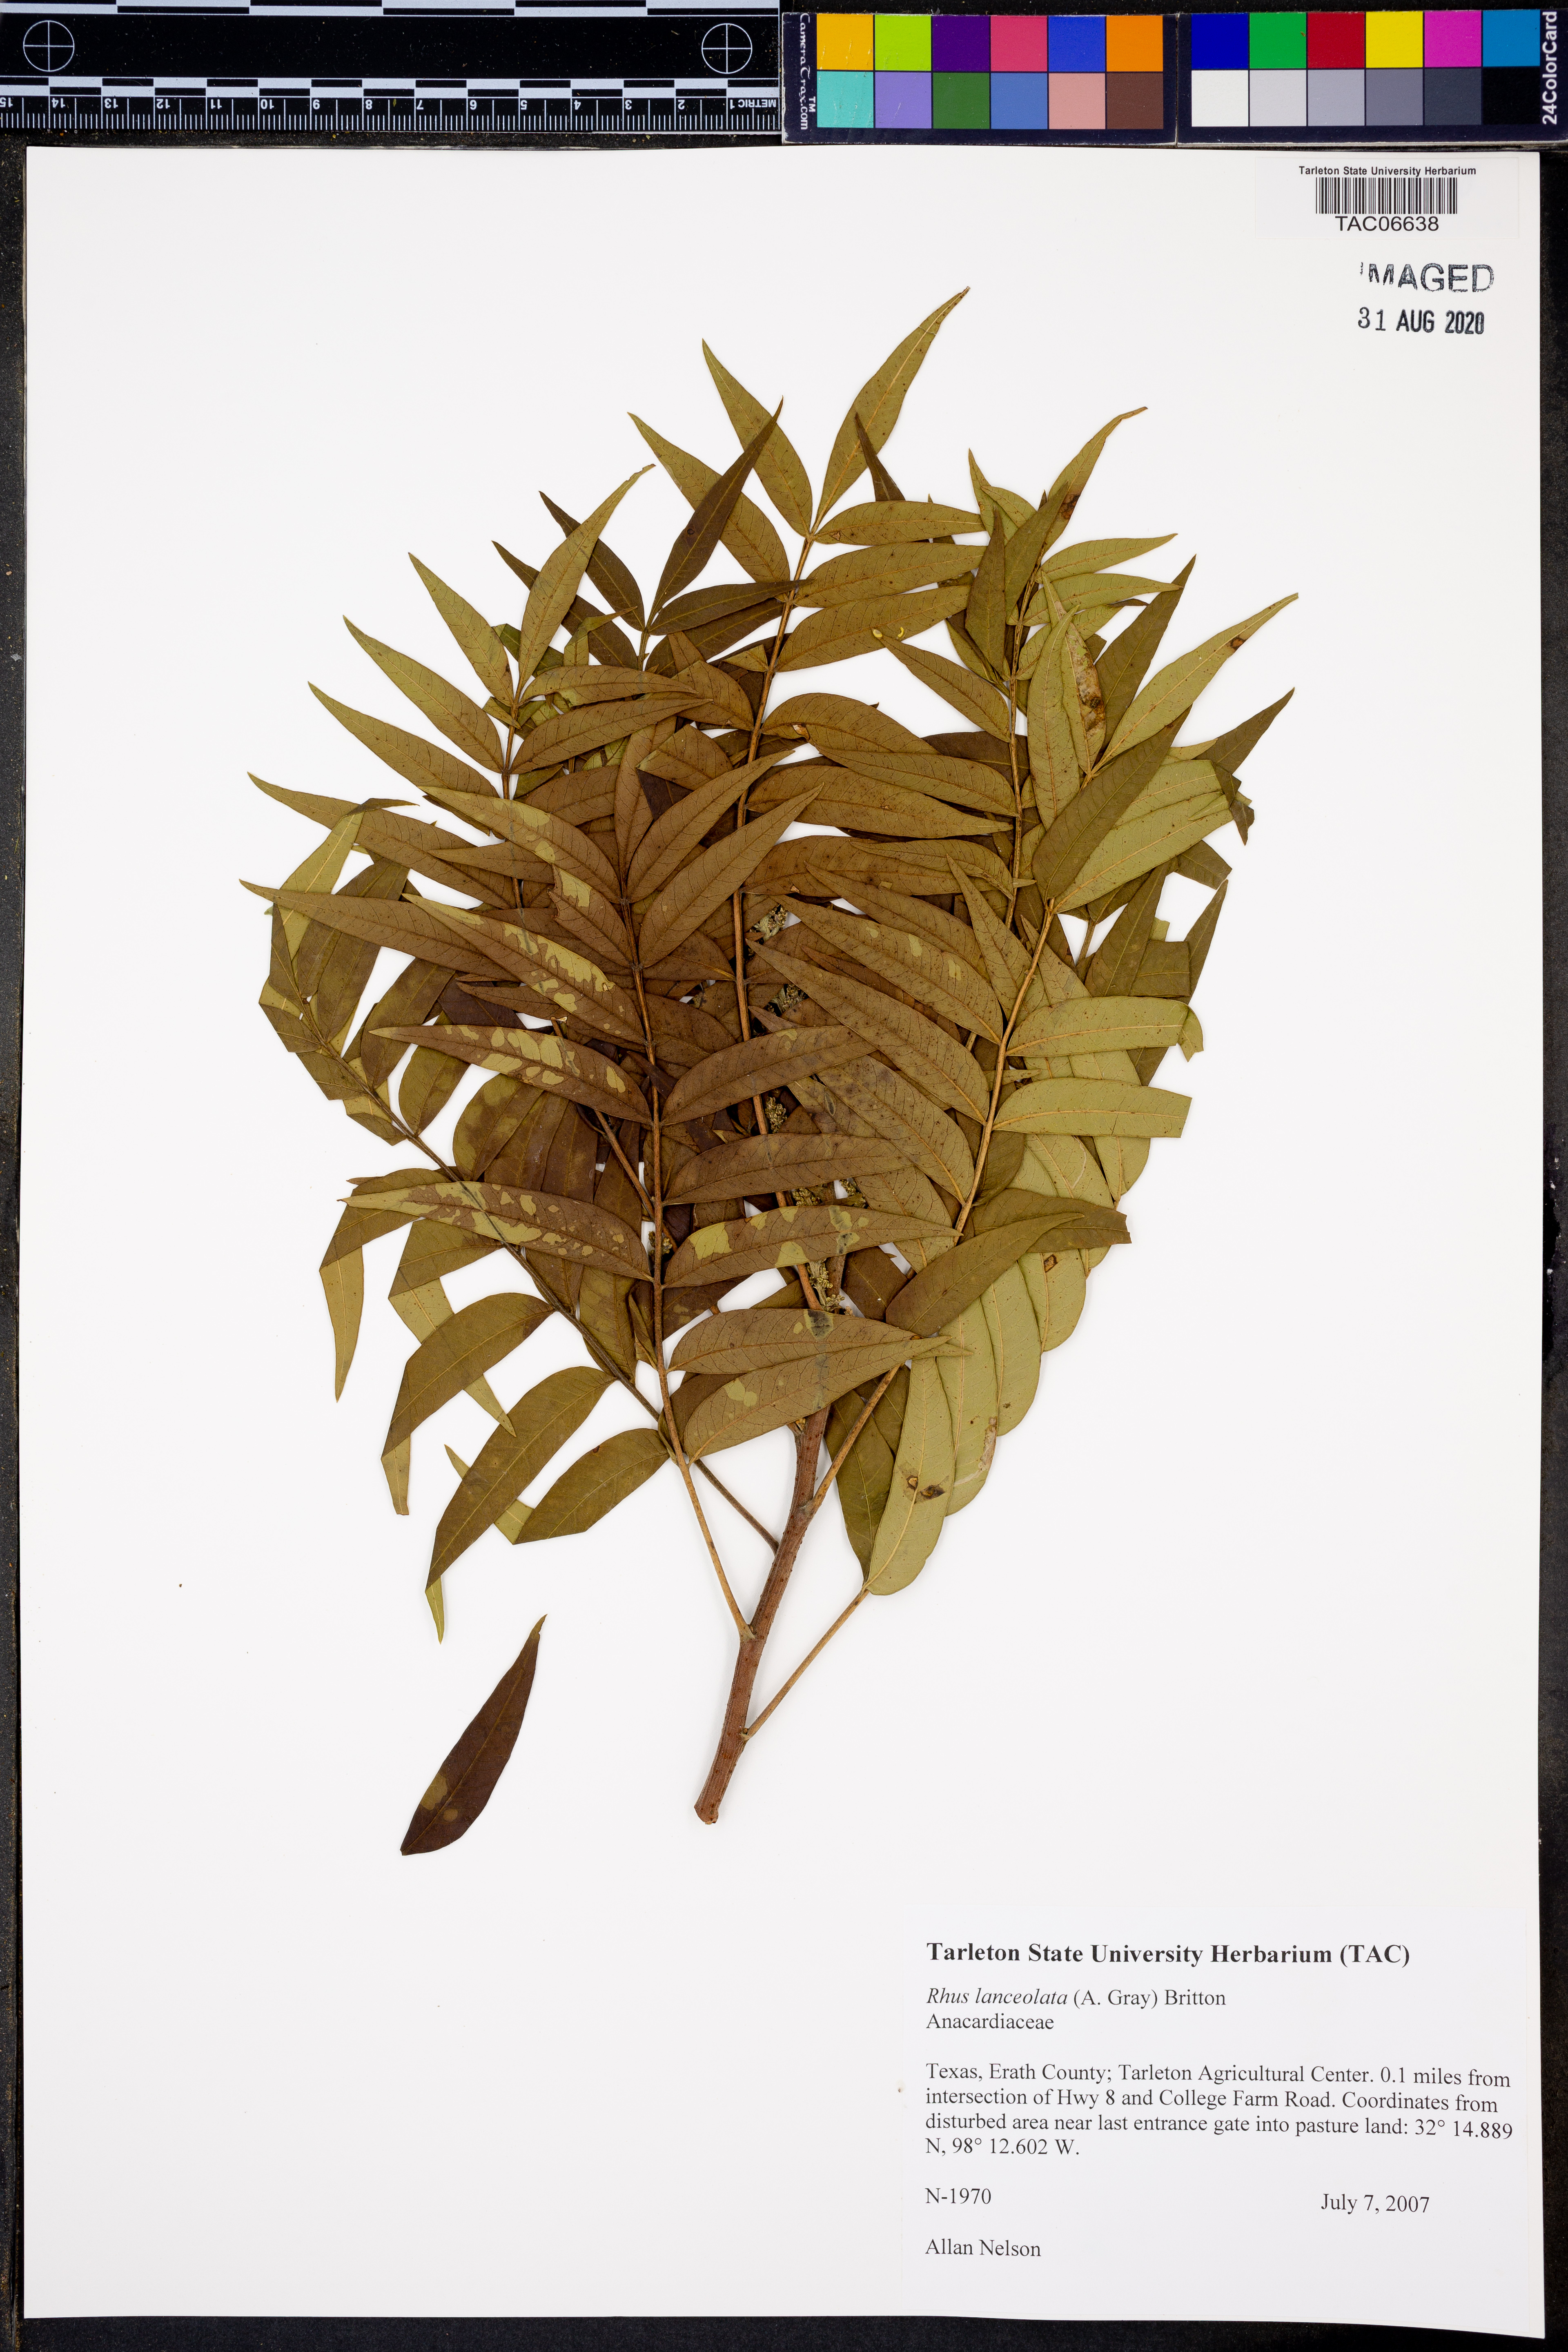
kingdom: Plantae
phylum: Tracheophyta
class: Magnoliopsida
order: Sapindales
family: Anacardiaceae
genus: Rhus
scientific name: Rhus lanceolata
